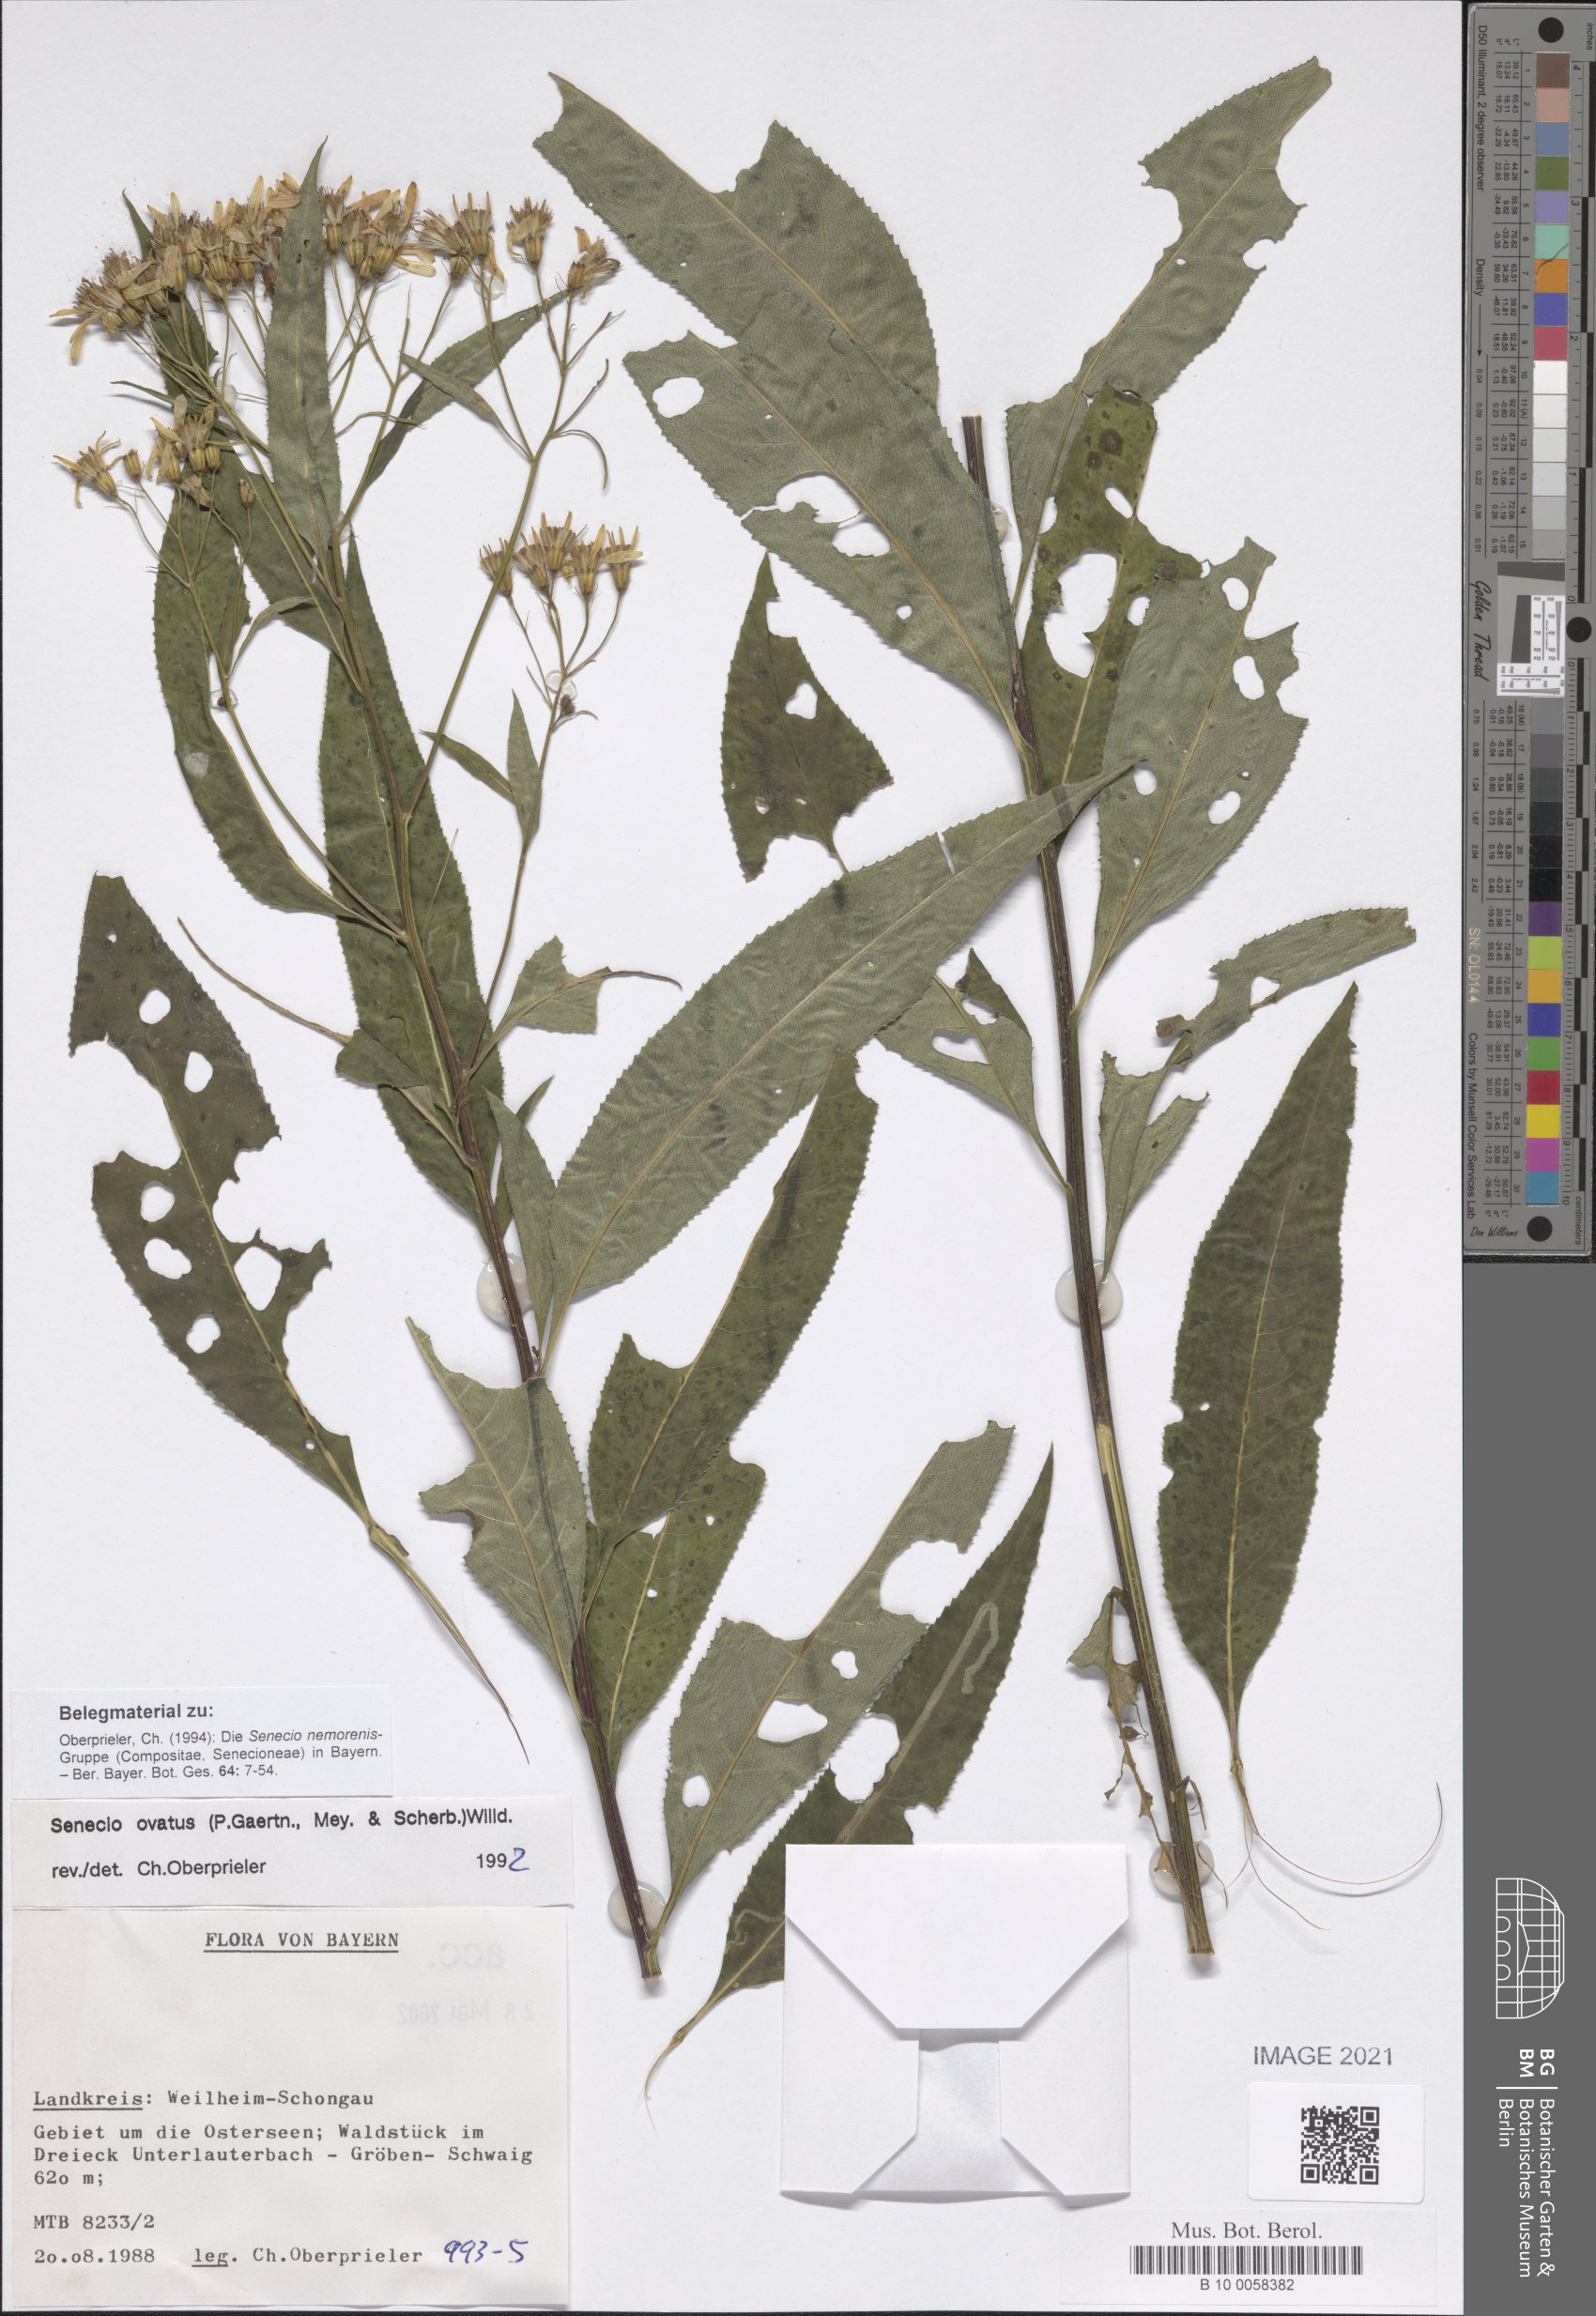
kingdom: Plantae
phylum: Tracheophyta
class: Magnoliopsida
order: Asterales
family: Asteraceae
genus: Senecio
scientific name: Senecio ovatus
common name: Wood ragwort
